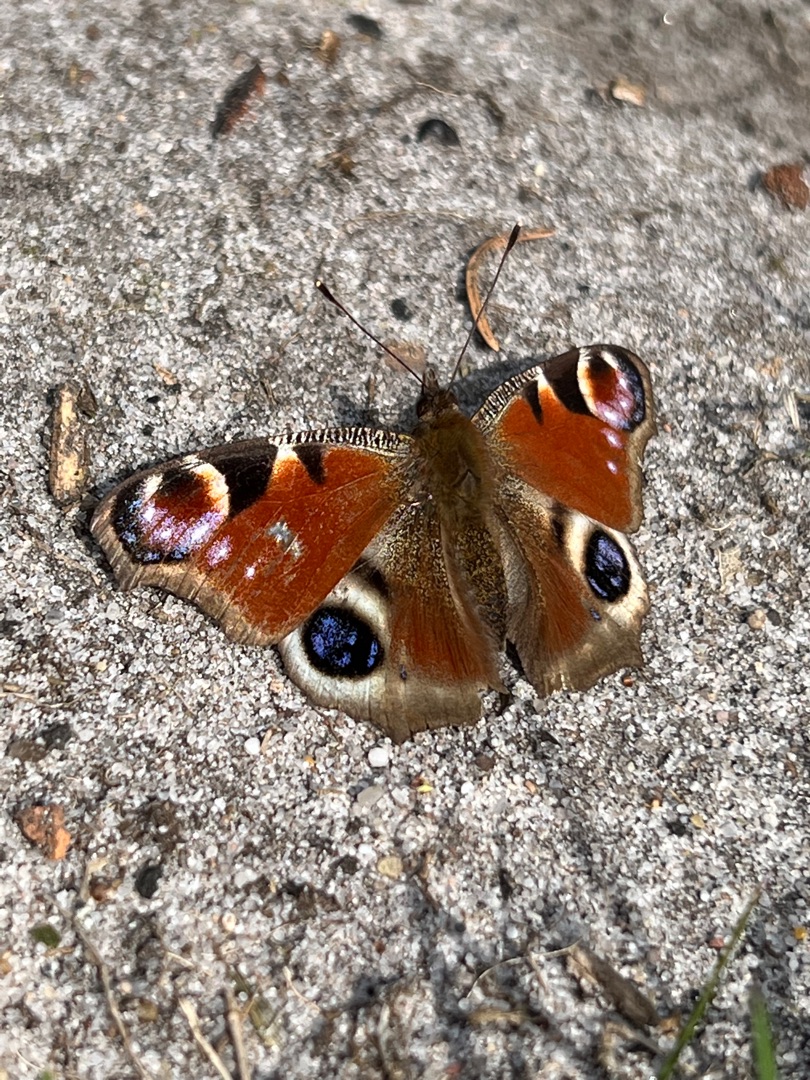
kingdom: Animalia
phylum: Arthropoda
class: Insecta
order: Lepidoptera
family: Nymphalidae
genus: Aglais
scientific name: Aglais io
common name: Dagpåfugleøje
